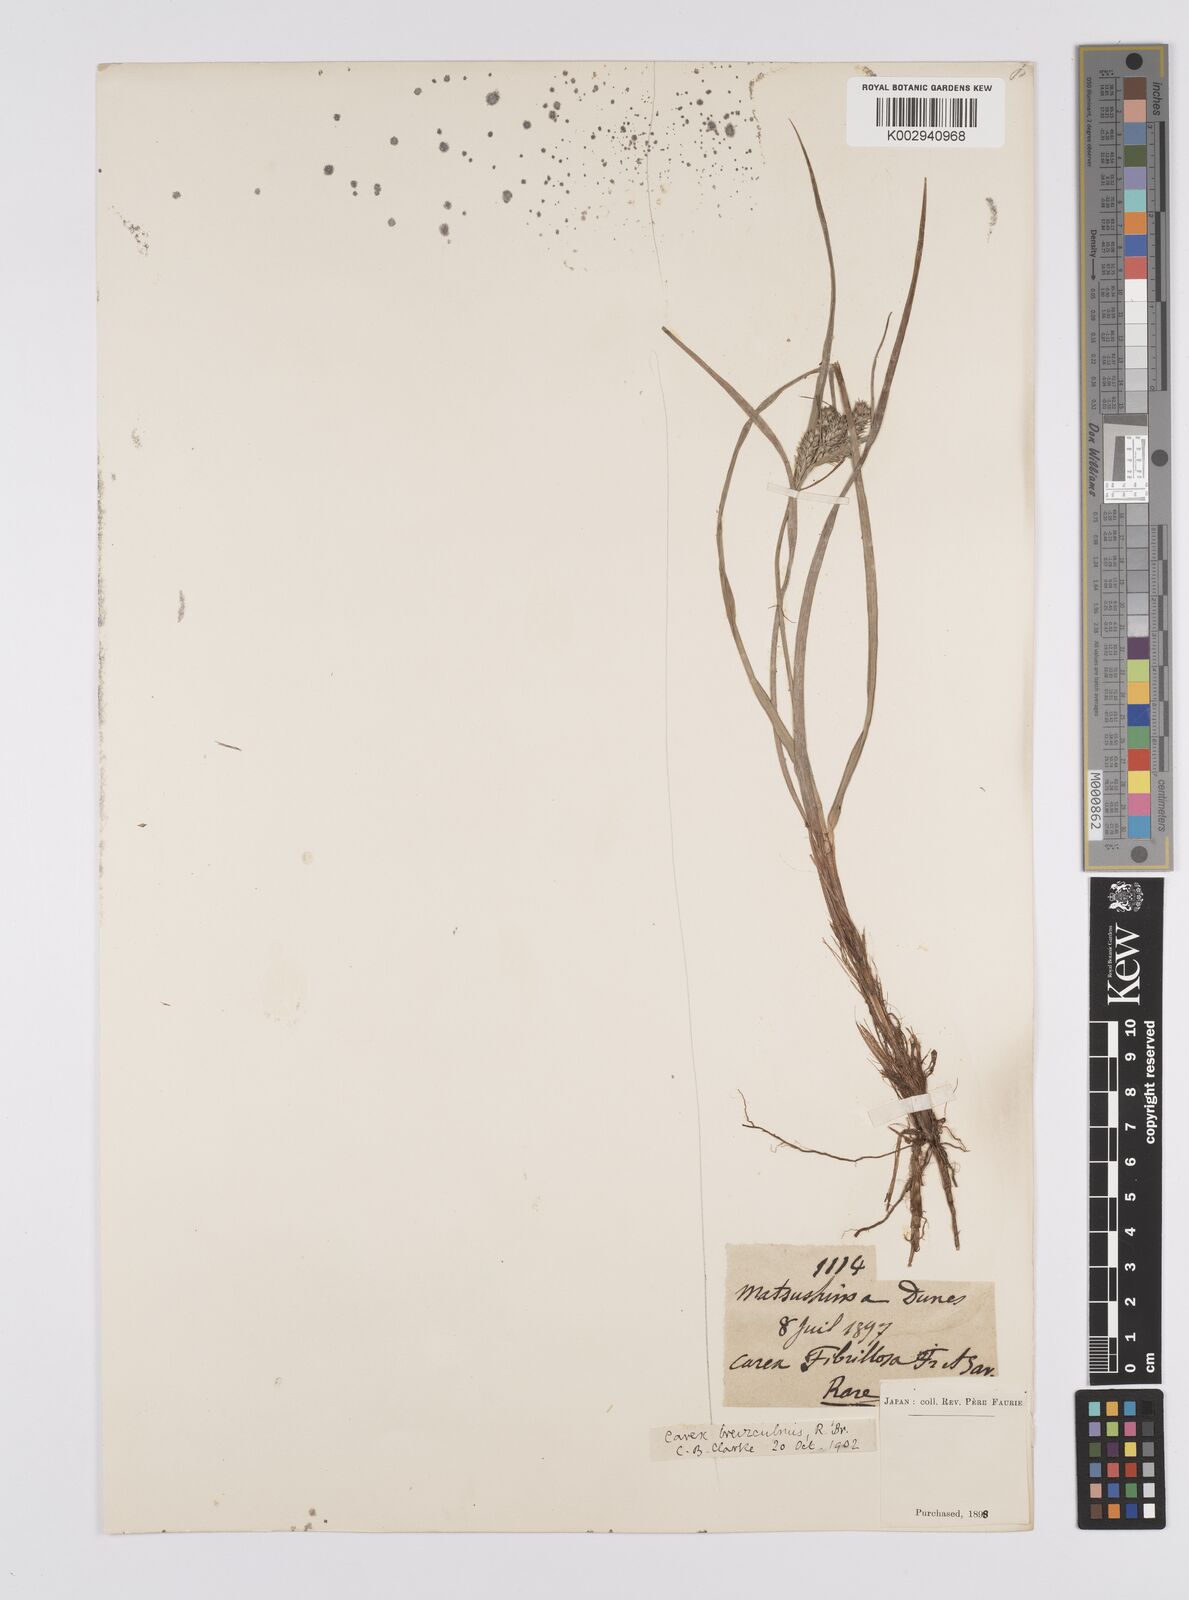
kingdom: Plantae
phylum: Tracheophyta
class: Liliopsida
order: Poales
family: Cyperaceae
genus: Carex
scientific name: Carex fibrillosa
